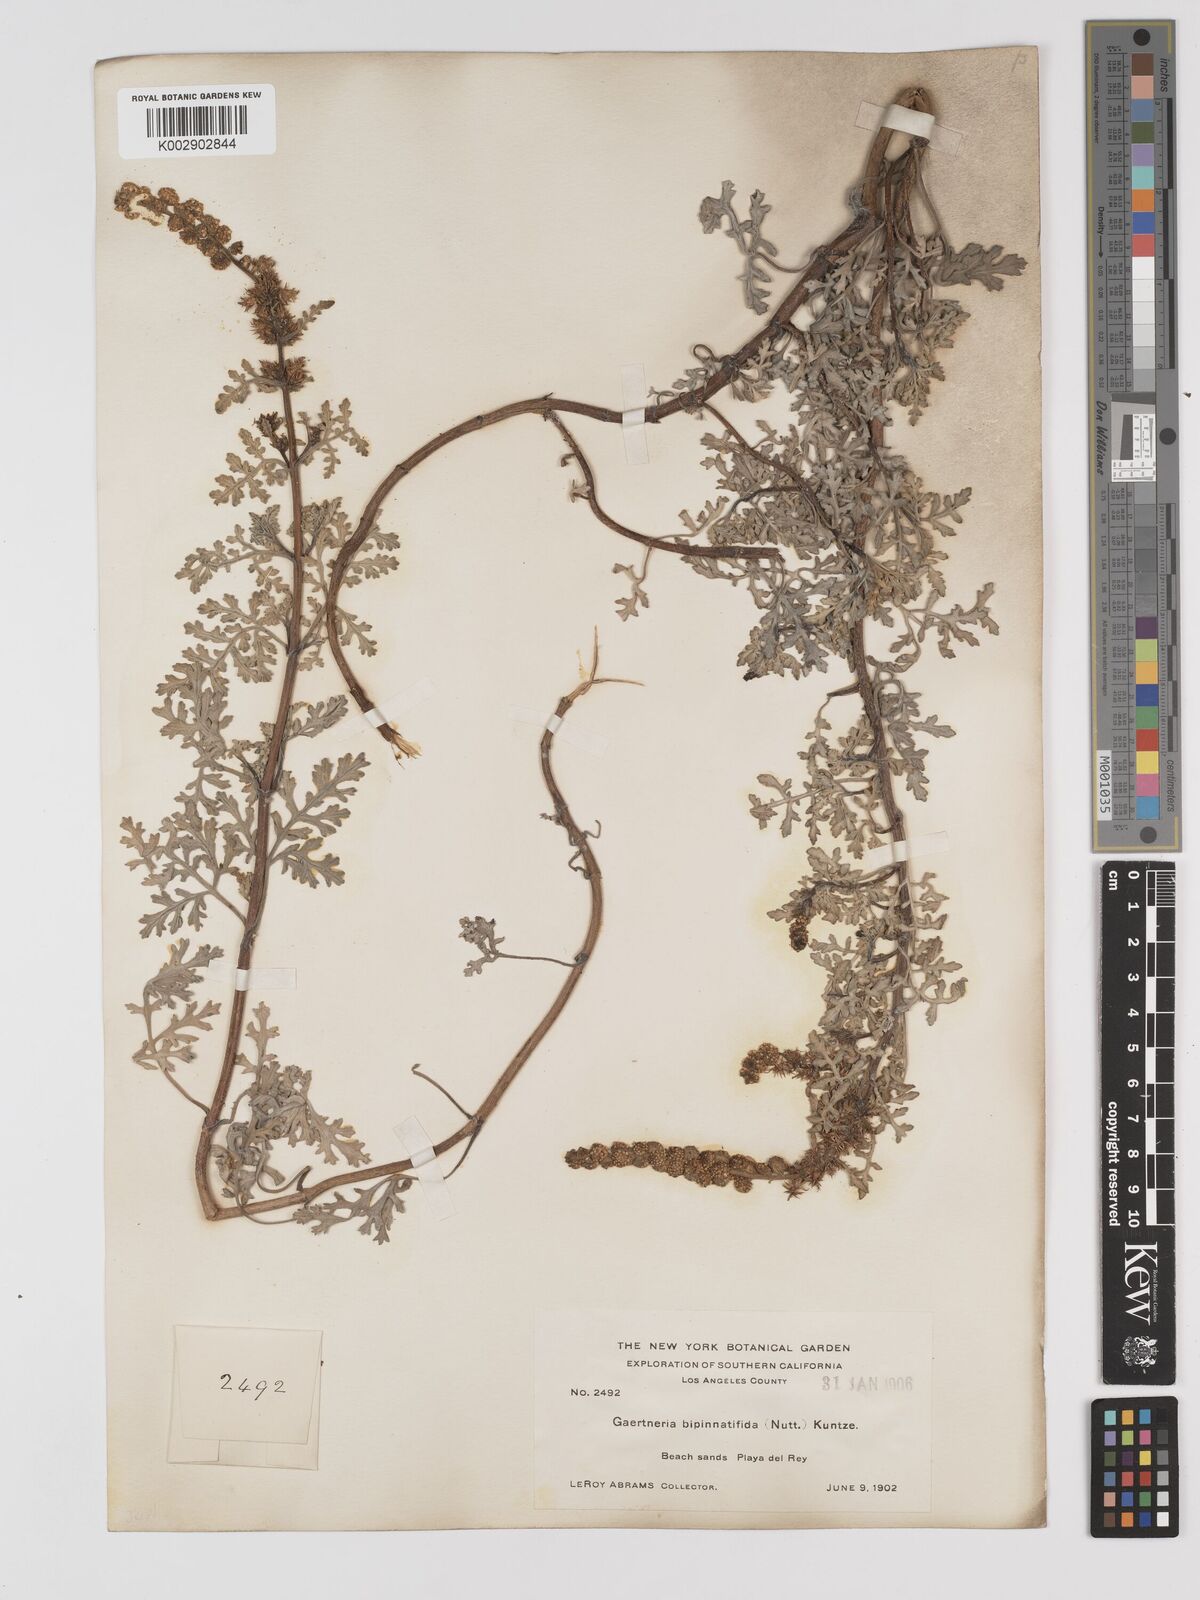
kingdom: Plantae
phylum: Tracheophyta
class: Magnoliopsida
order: Asterales
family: Asteraceae
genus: Ambrosia
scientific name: Ambrosia camphorata
